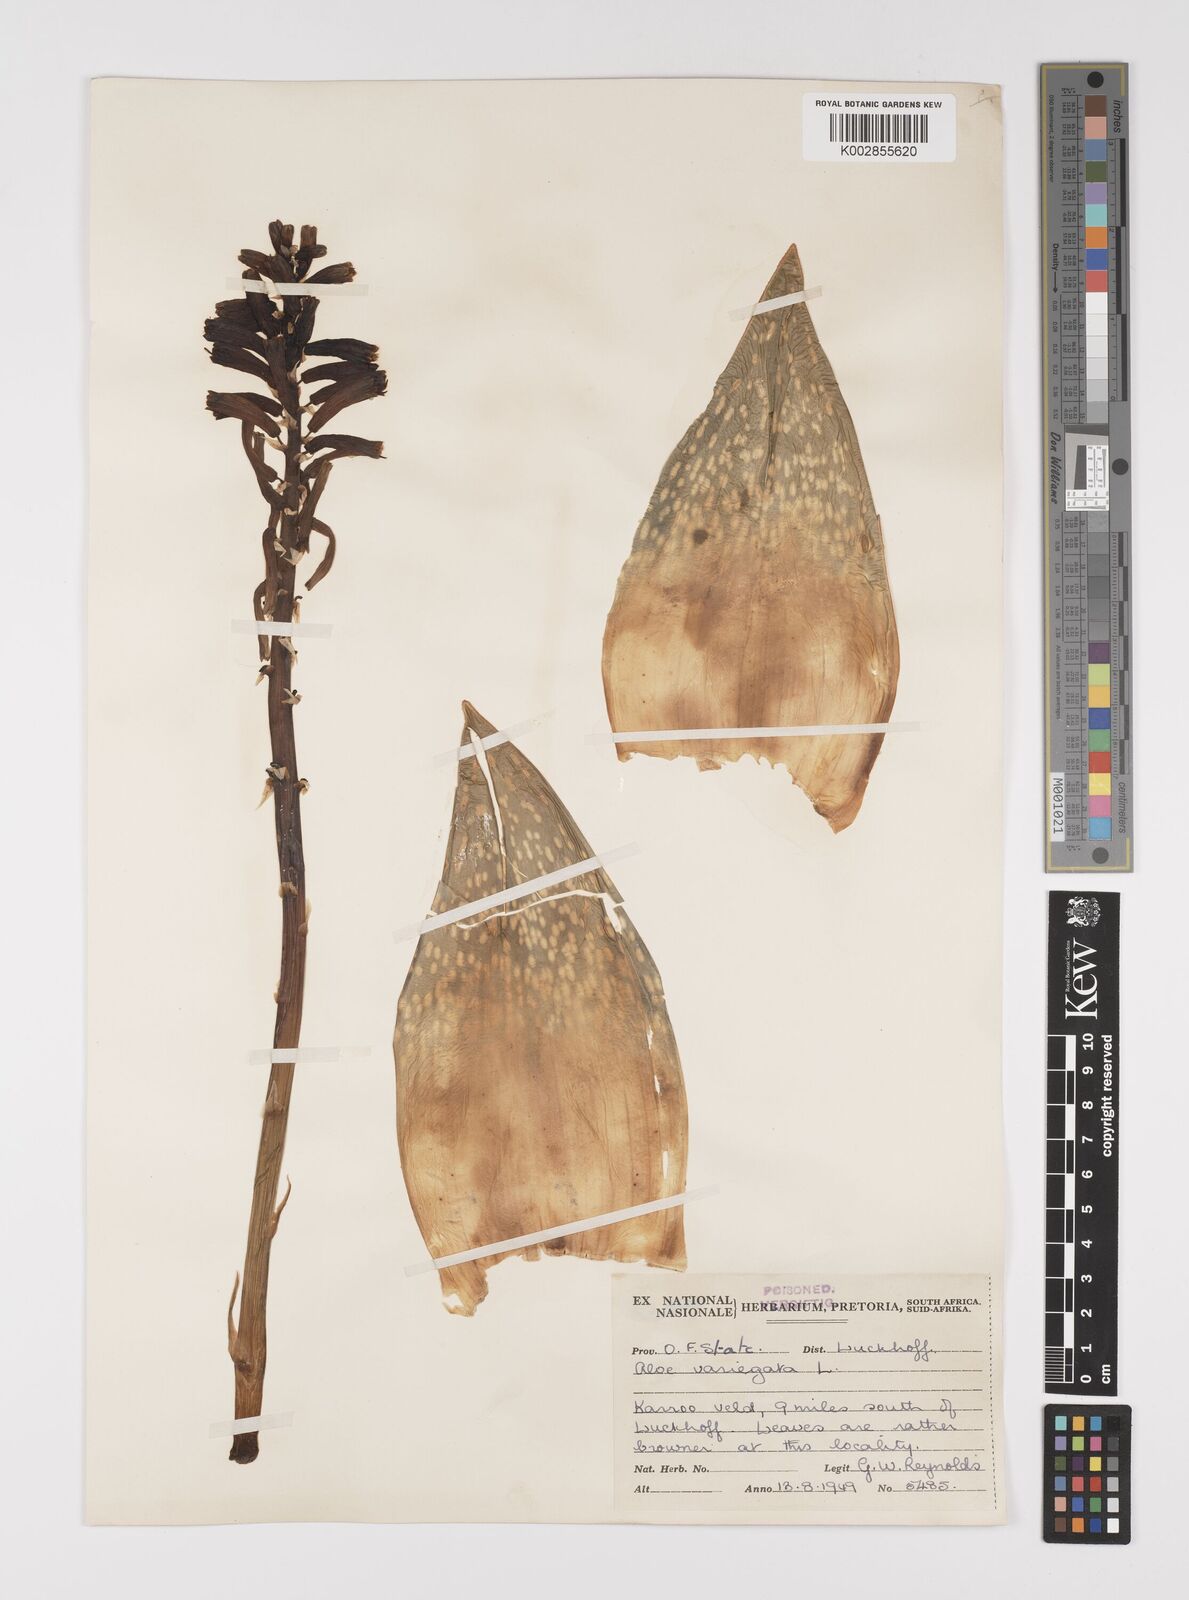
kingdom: Plantae
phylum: Tracheophyta
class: Liliopsida
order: Asparagales
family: Asphodelaceae
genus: Gonialoe
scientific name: Gonialoe variegata
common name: Aloe variegata
